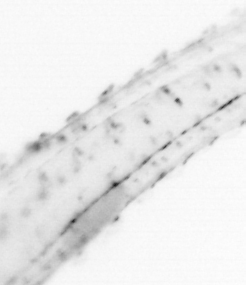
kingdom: Animalia
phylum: Chaetognatha
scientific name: Chaetognatha
